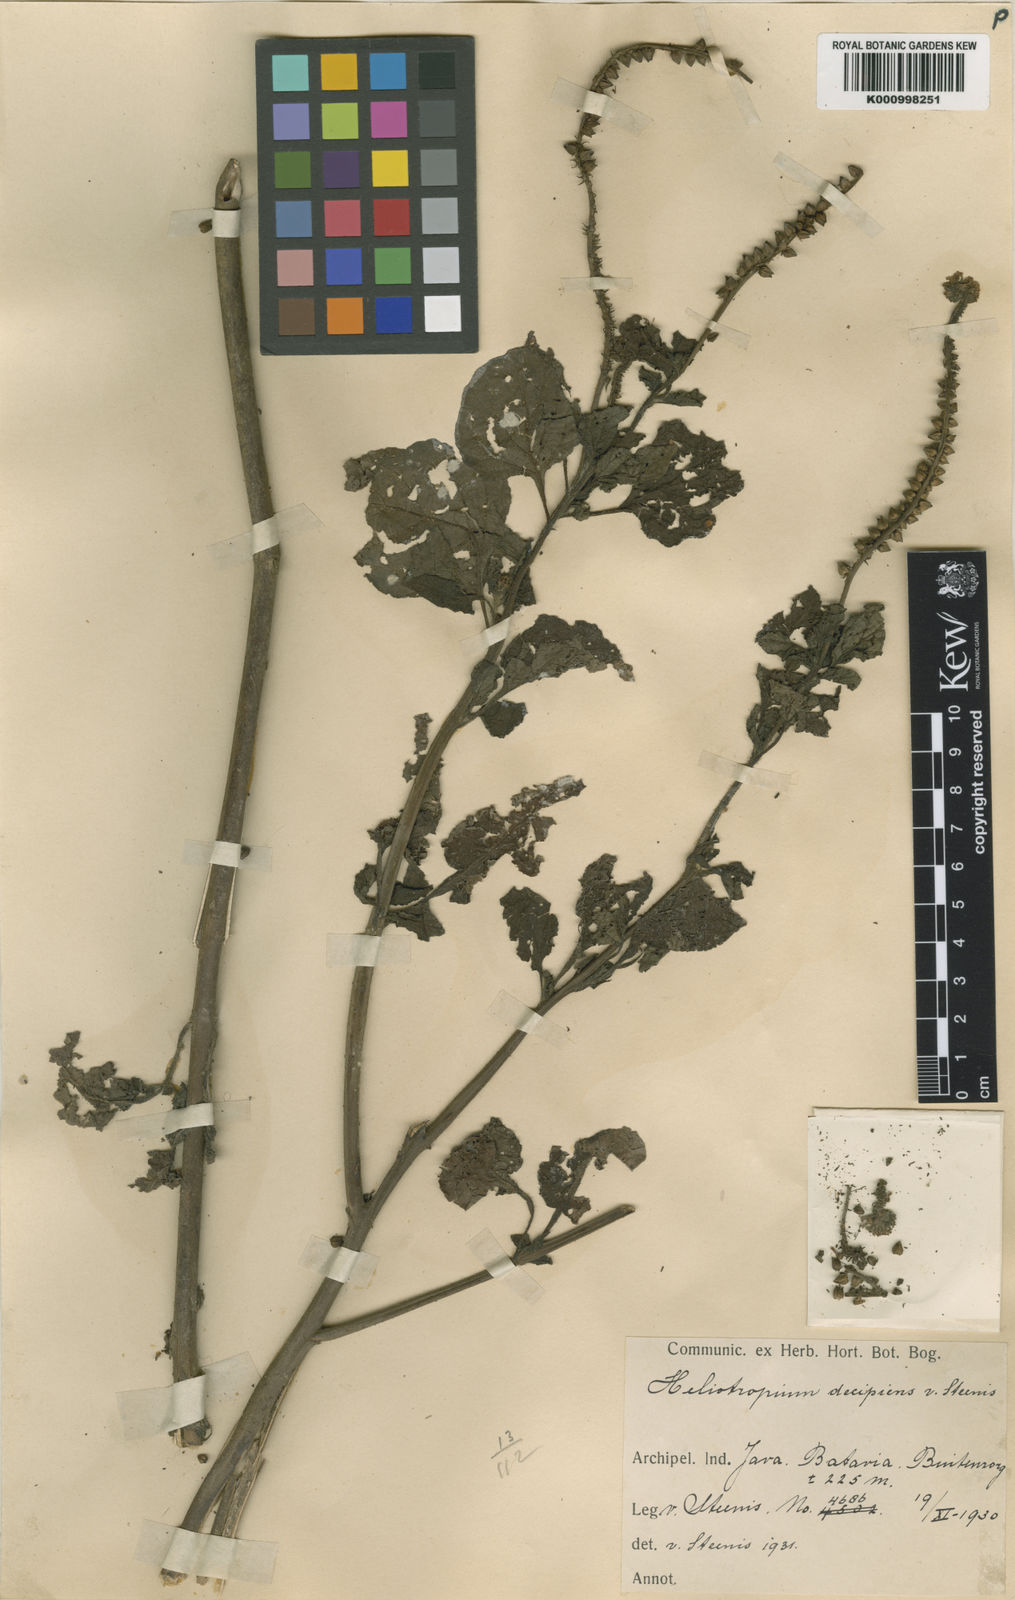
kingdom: Plantae
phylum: Tracheophyta
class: Magnoliopsida
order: Boraginales
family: Heliotropiaceae
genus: Heliotropium
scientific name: Heliotropium
